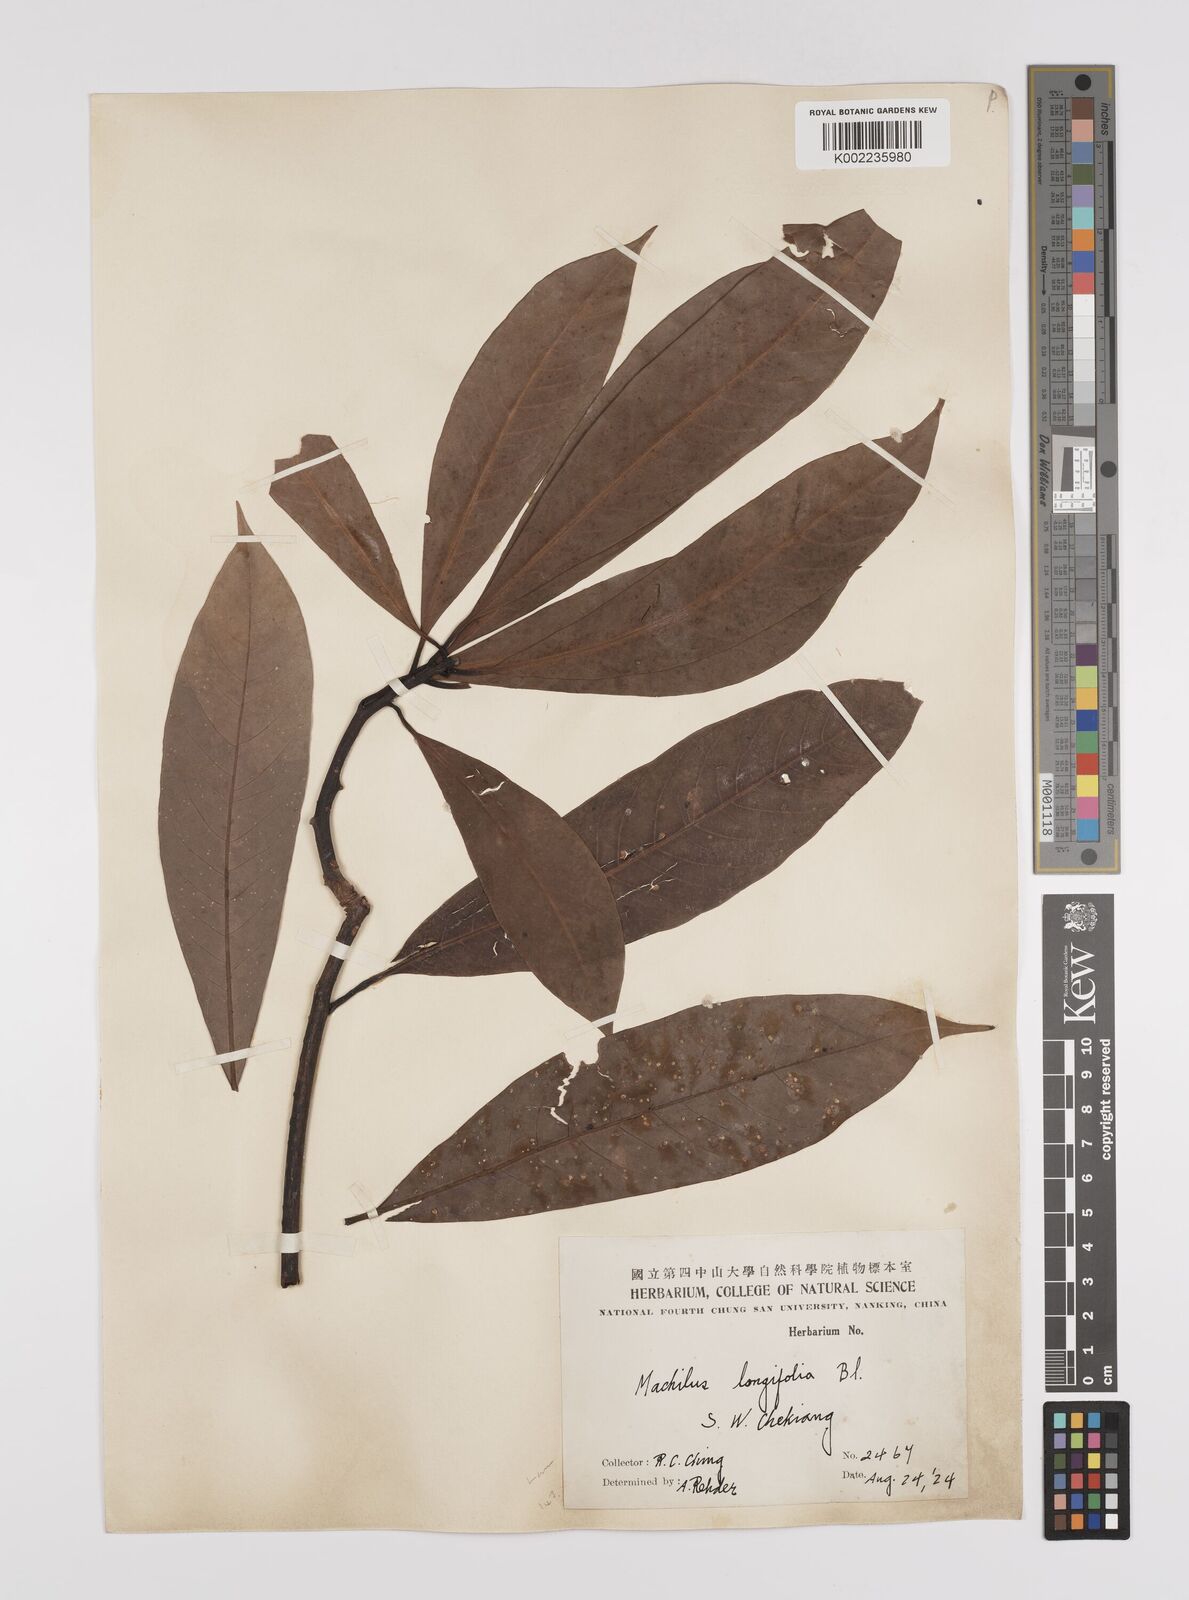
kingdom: Plantae
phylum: Tracheophyta
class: Magnoliopsida
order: Laurales
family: Lauraceae
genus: Persea
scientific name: Persea
